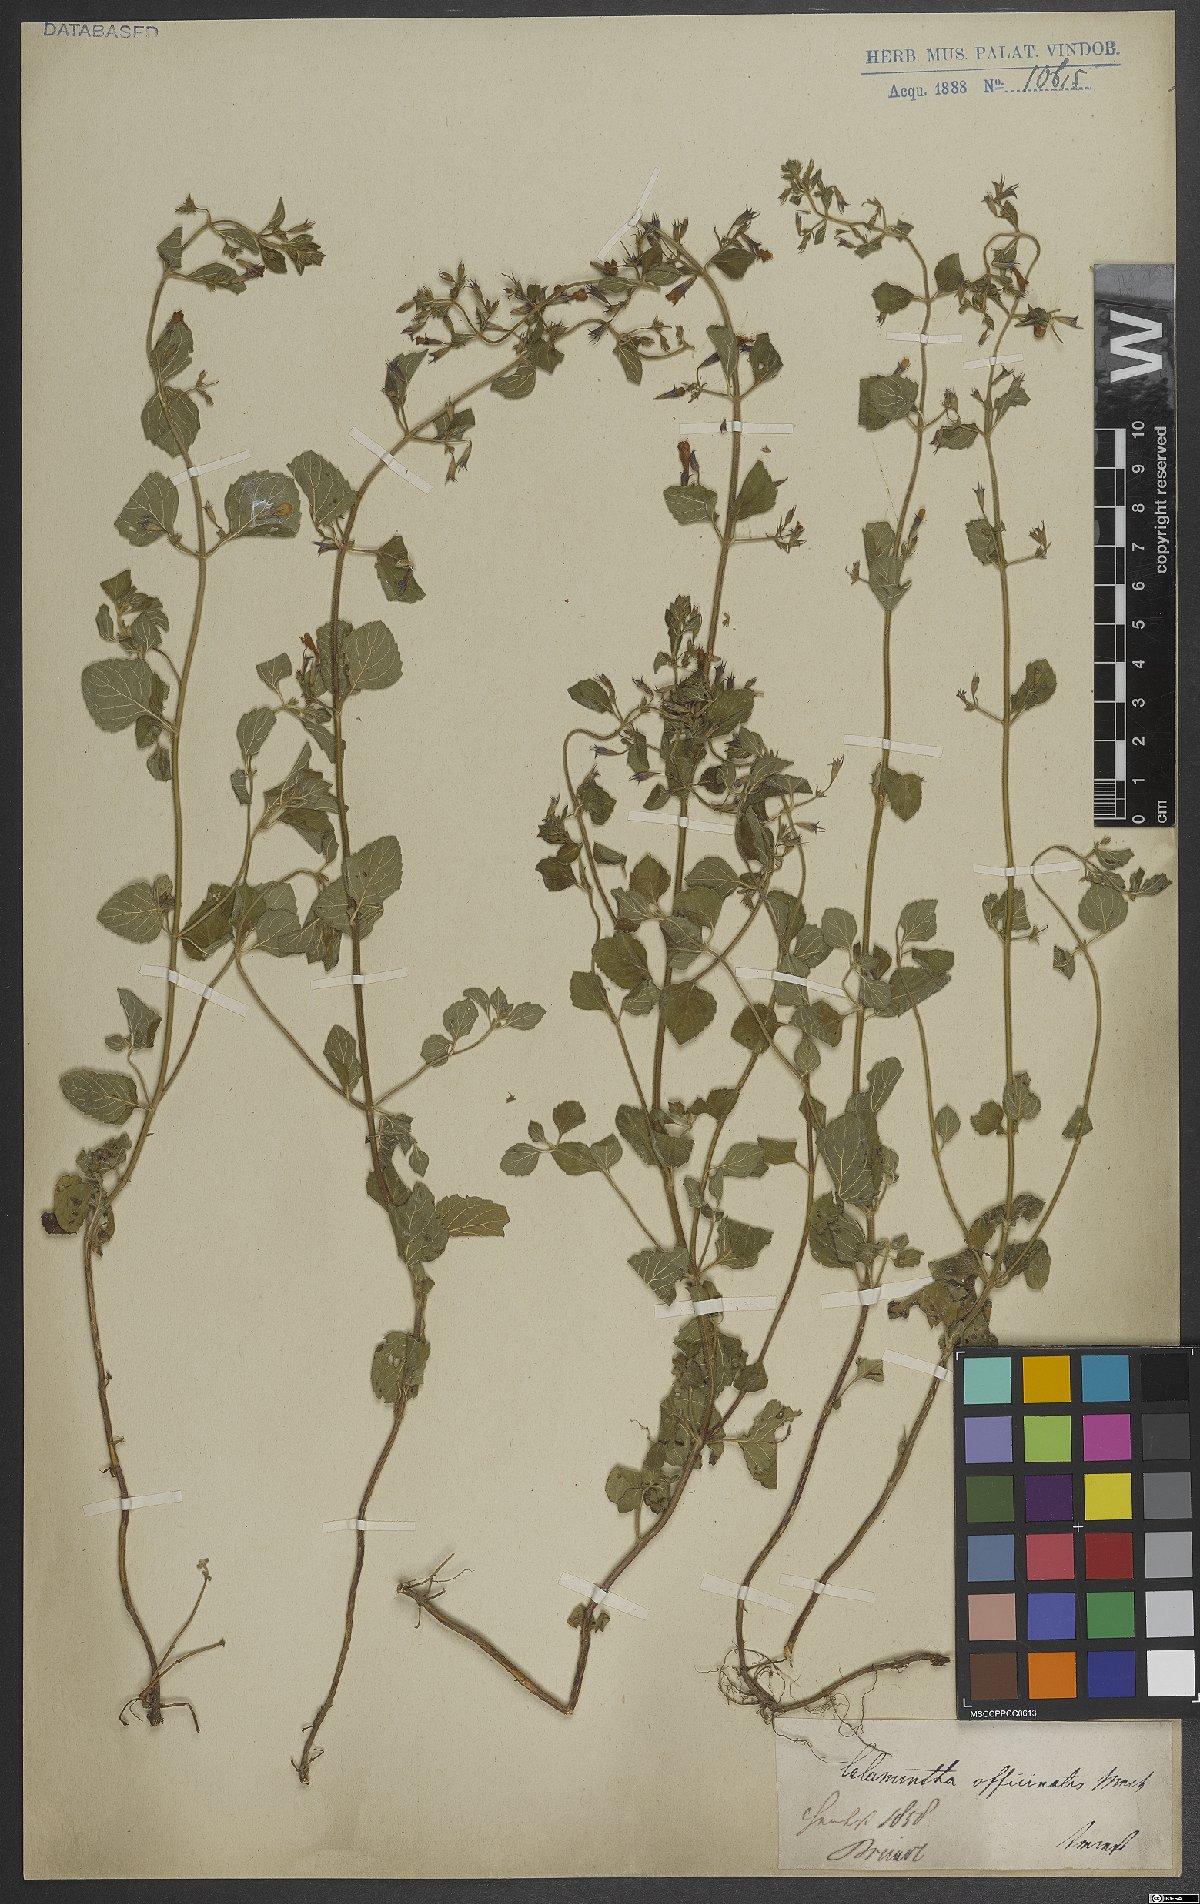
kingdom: Plantae
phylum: Tracheophyta
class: Magnoliopsida
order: Lamiales
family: Lamiaceae
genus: Clinopodium
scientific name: Clinopodium nepeta
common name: Lesser calamint
